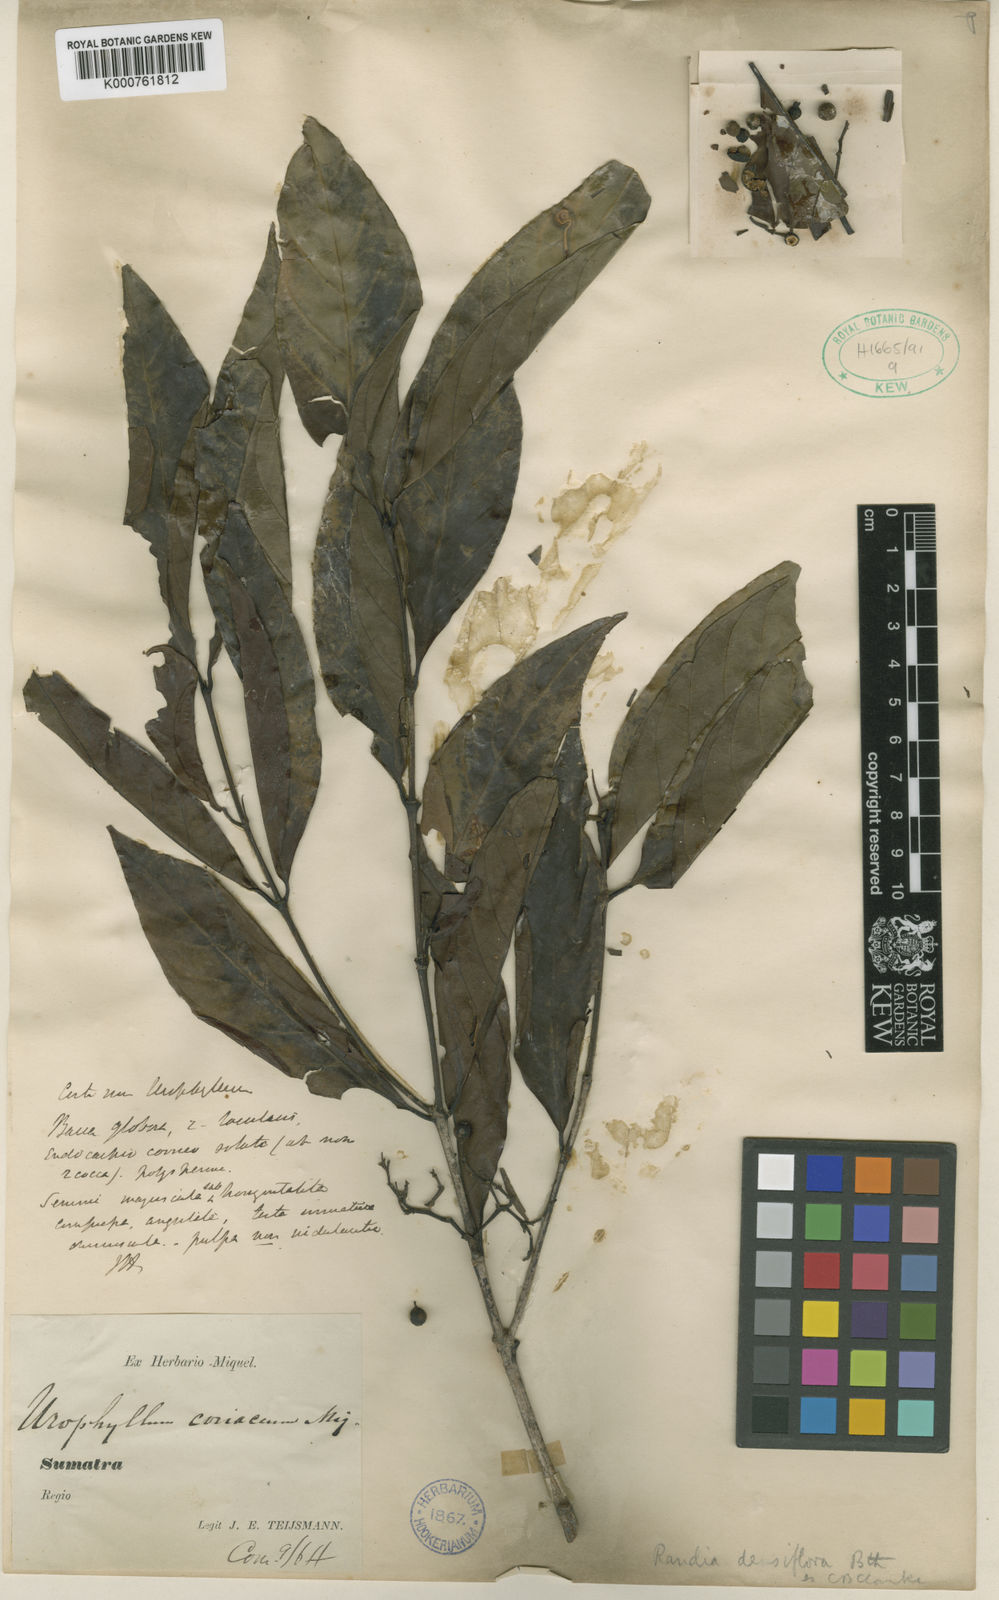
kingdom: Plantae
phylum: Tracheophyta
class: Magnoliopsida
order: Gentianales
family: Rubiaceae
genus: Aidia
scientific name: Aidia densiflora
